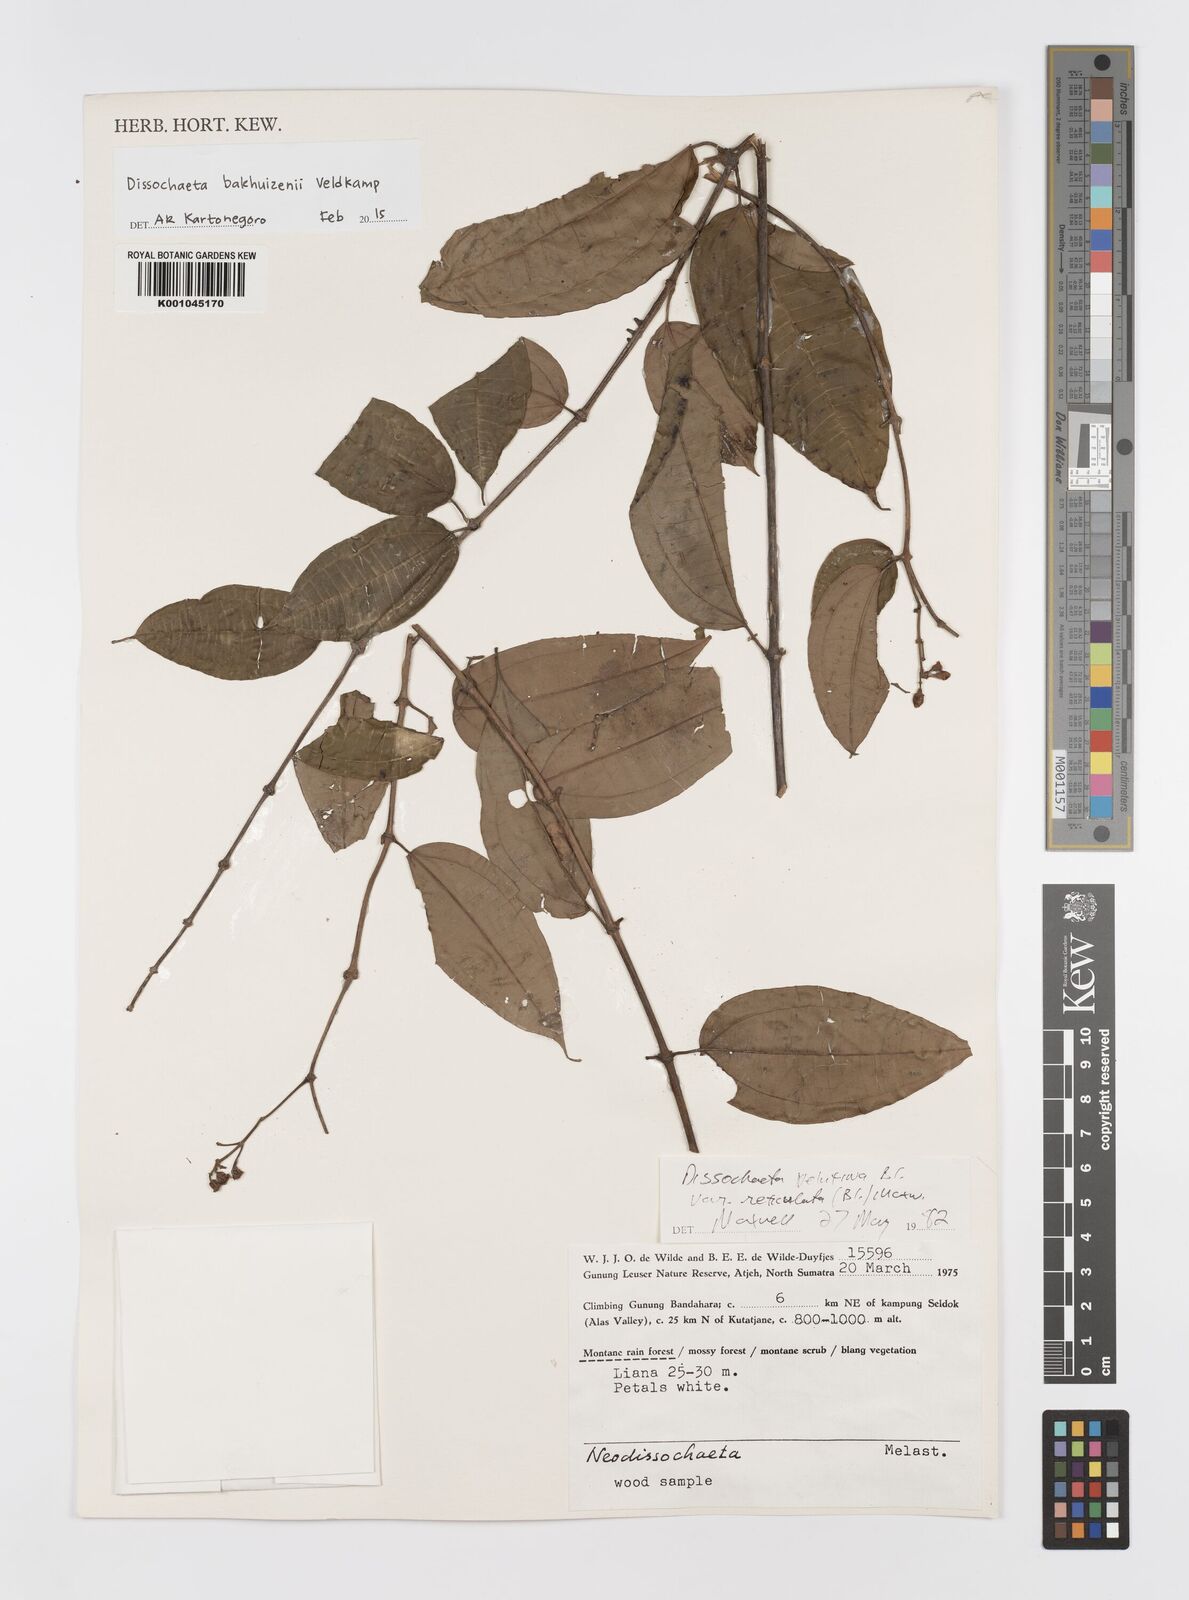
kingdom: Plantae
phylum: Tracheophyta
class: Magnoliopsida
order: Myrtales
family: Melastomataceae
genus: Dissochaeta
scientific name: Dissochaeta bakhuizenii
